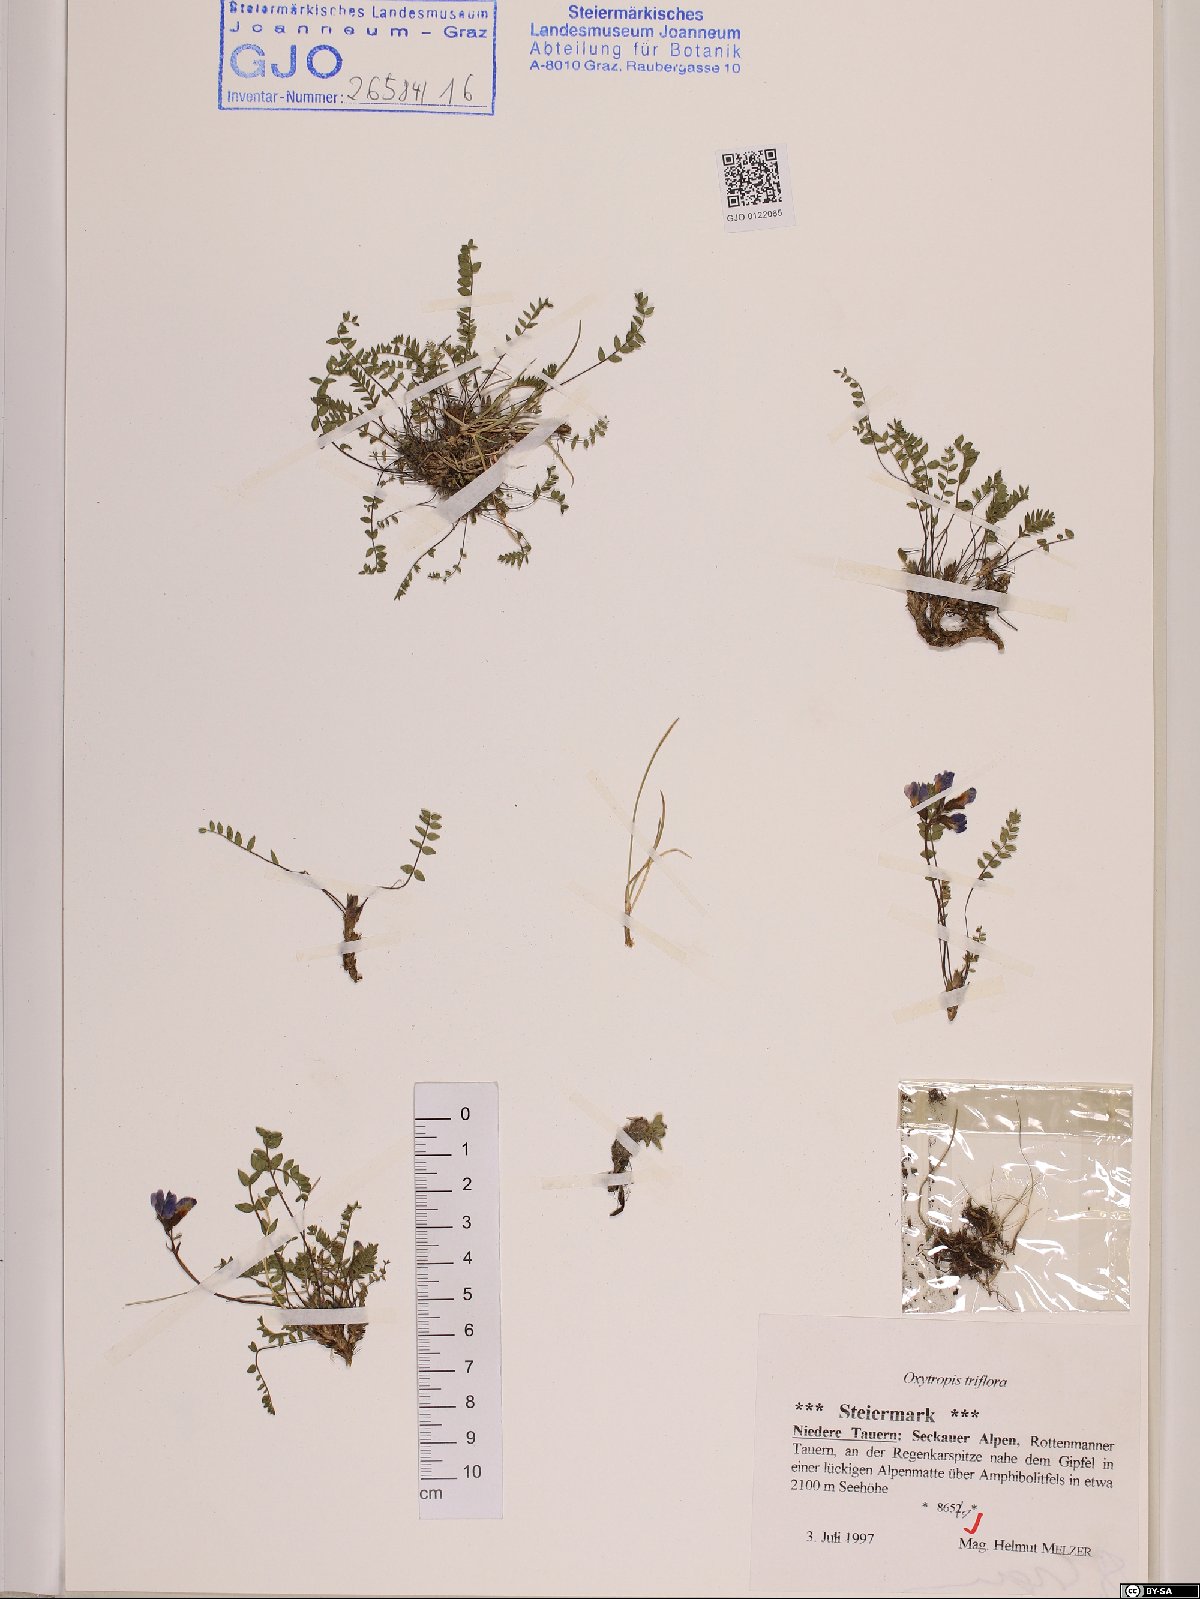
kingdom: Plantae
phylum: Tracheophyta
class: Magnoliopsida
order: Fabales
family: Fabaceae
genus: Oxytropis
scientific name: Oxytropis triflora
